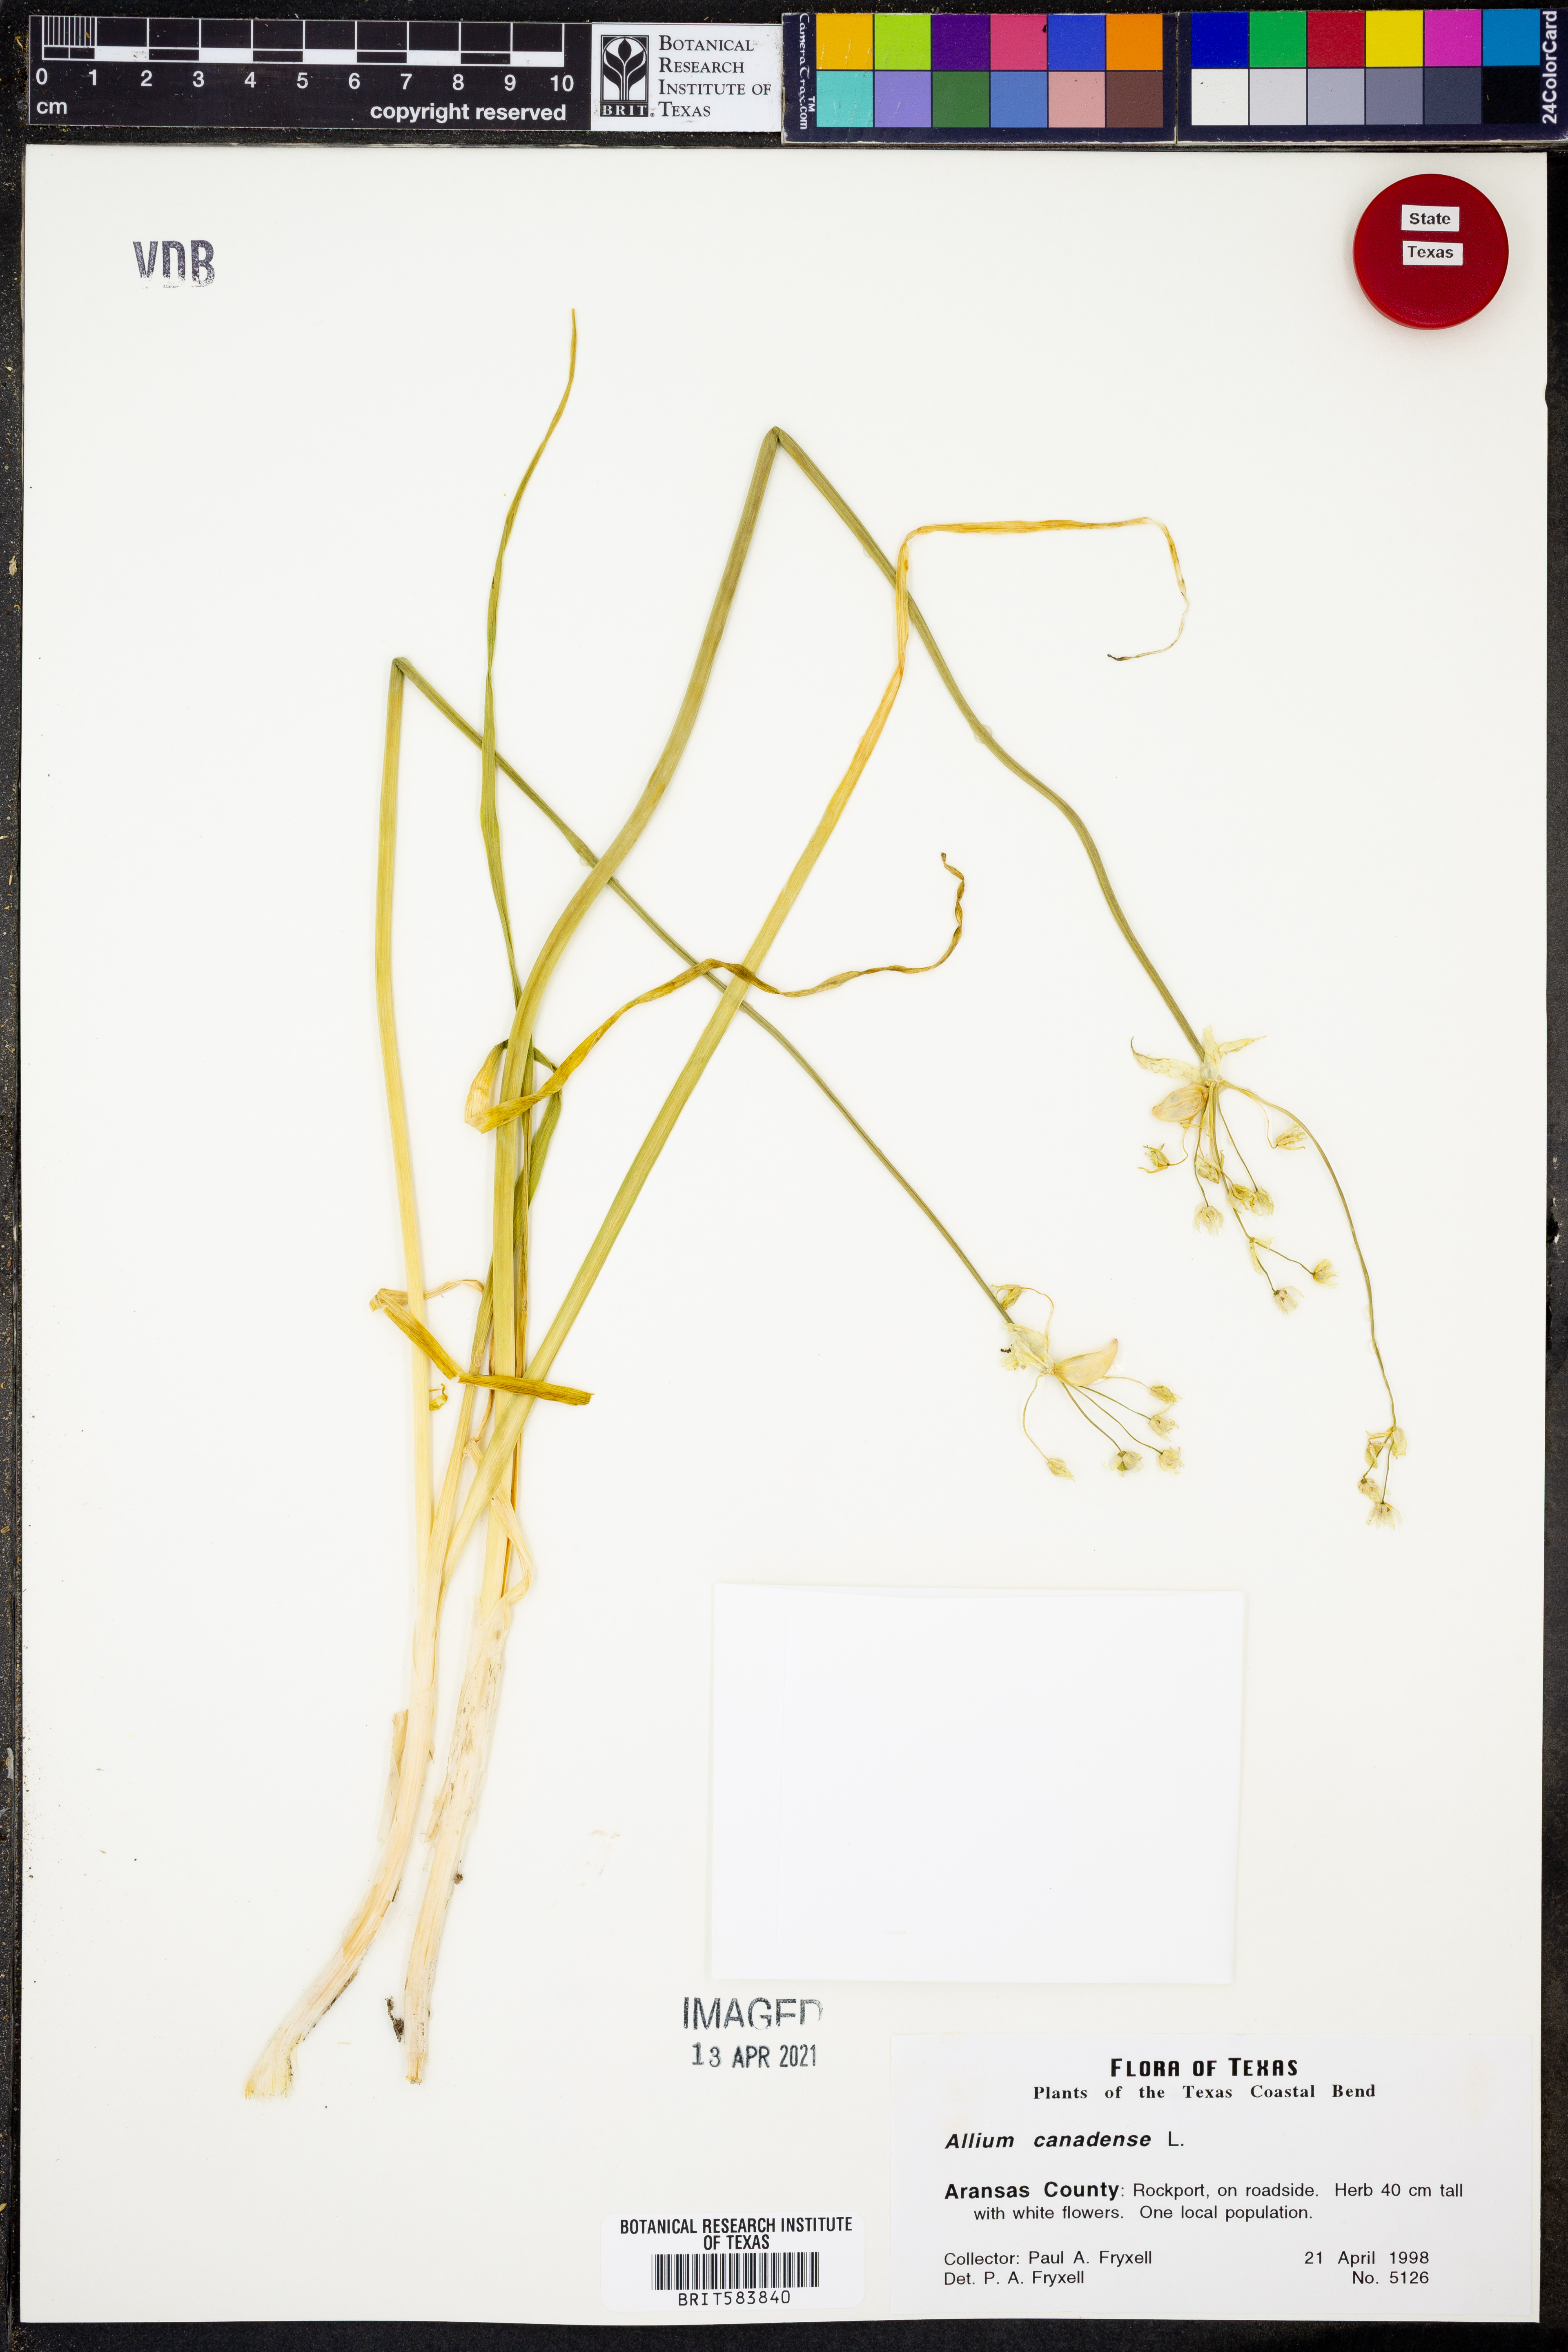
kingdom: Plantae
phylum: Tracheophyta
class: Liliopsida
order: Asparagales
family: Amaryllidaceae
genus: Allium
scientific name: Allium canadense
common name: Meadow garlic
